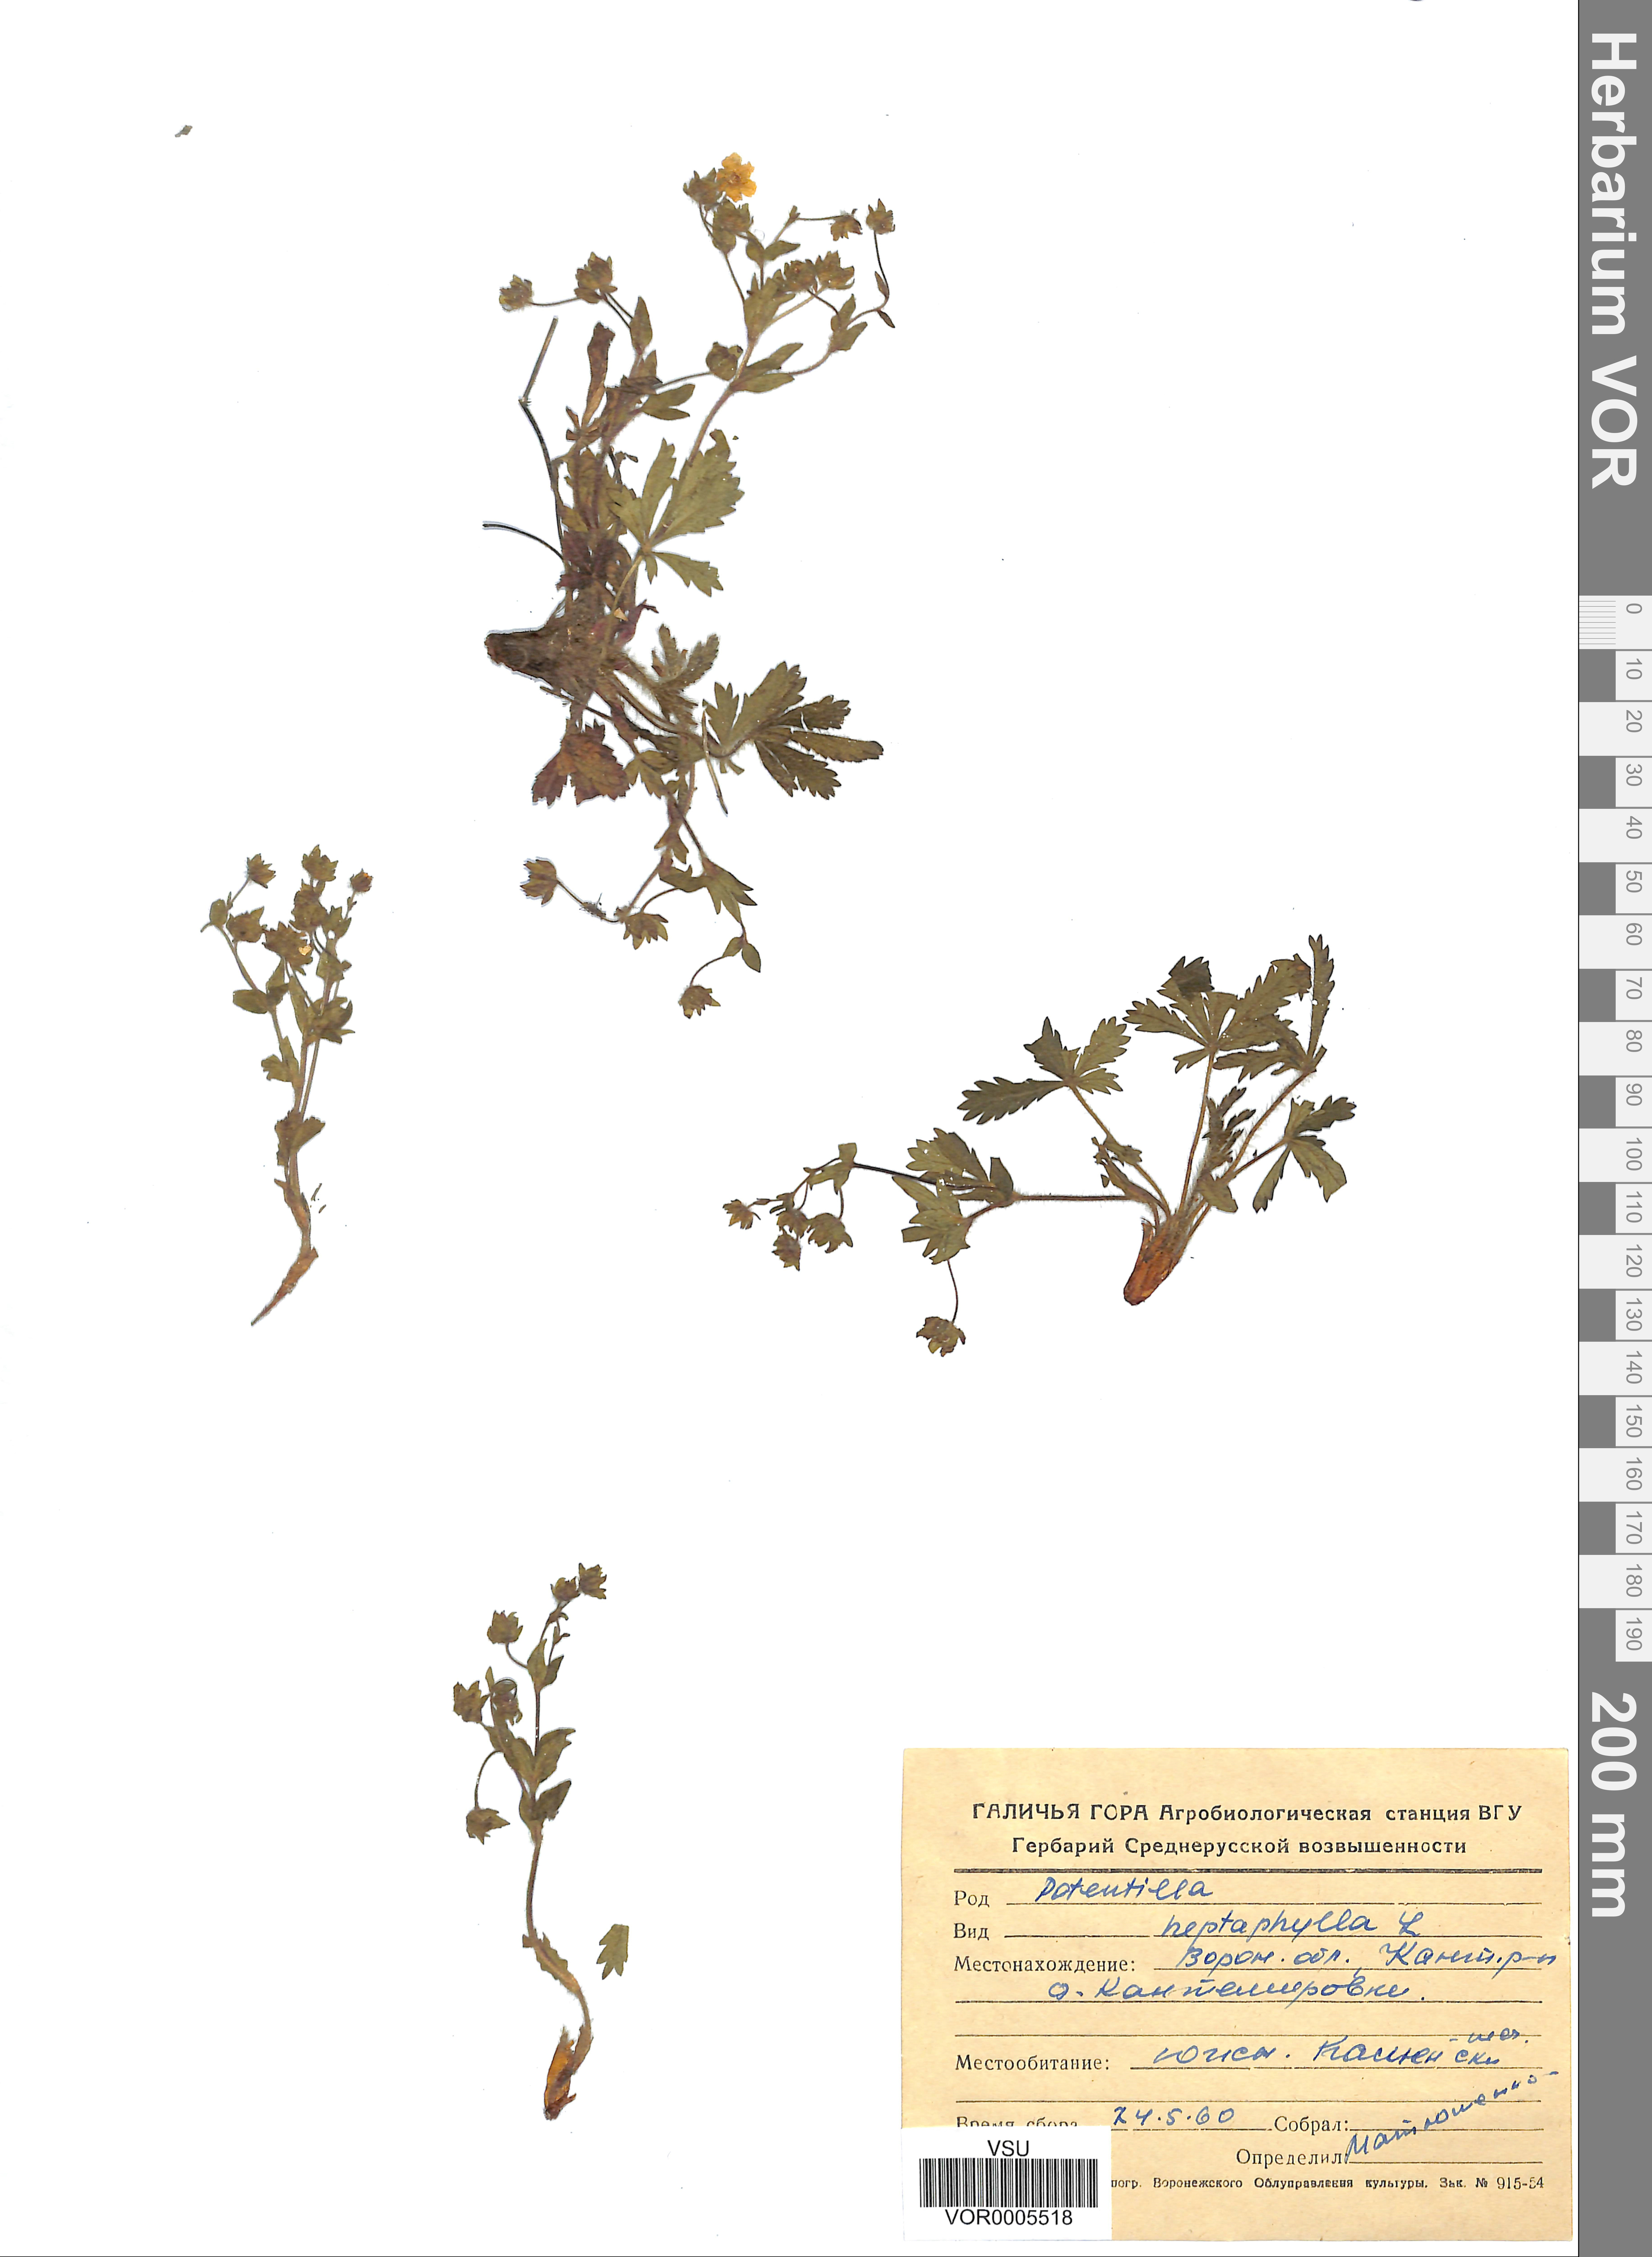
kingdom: Plantae
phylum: Tracheophyta
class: Magnoliopsida
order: Rosales
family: Rosaceae
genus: Potentilla
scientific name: Potentilla heptaphylla
